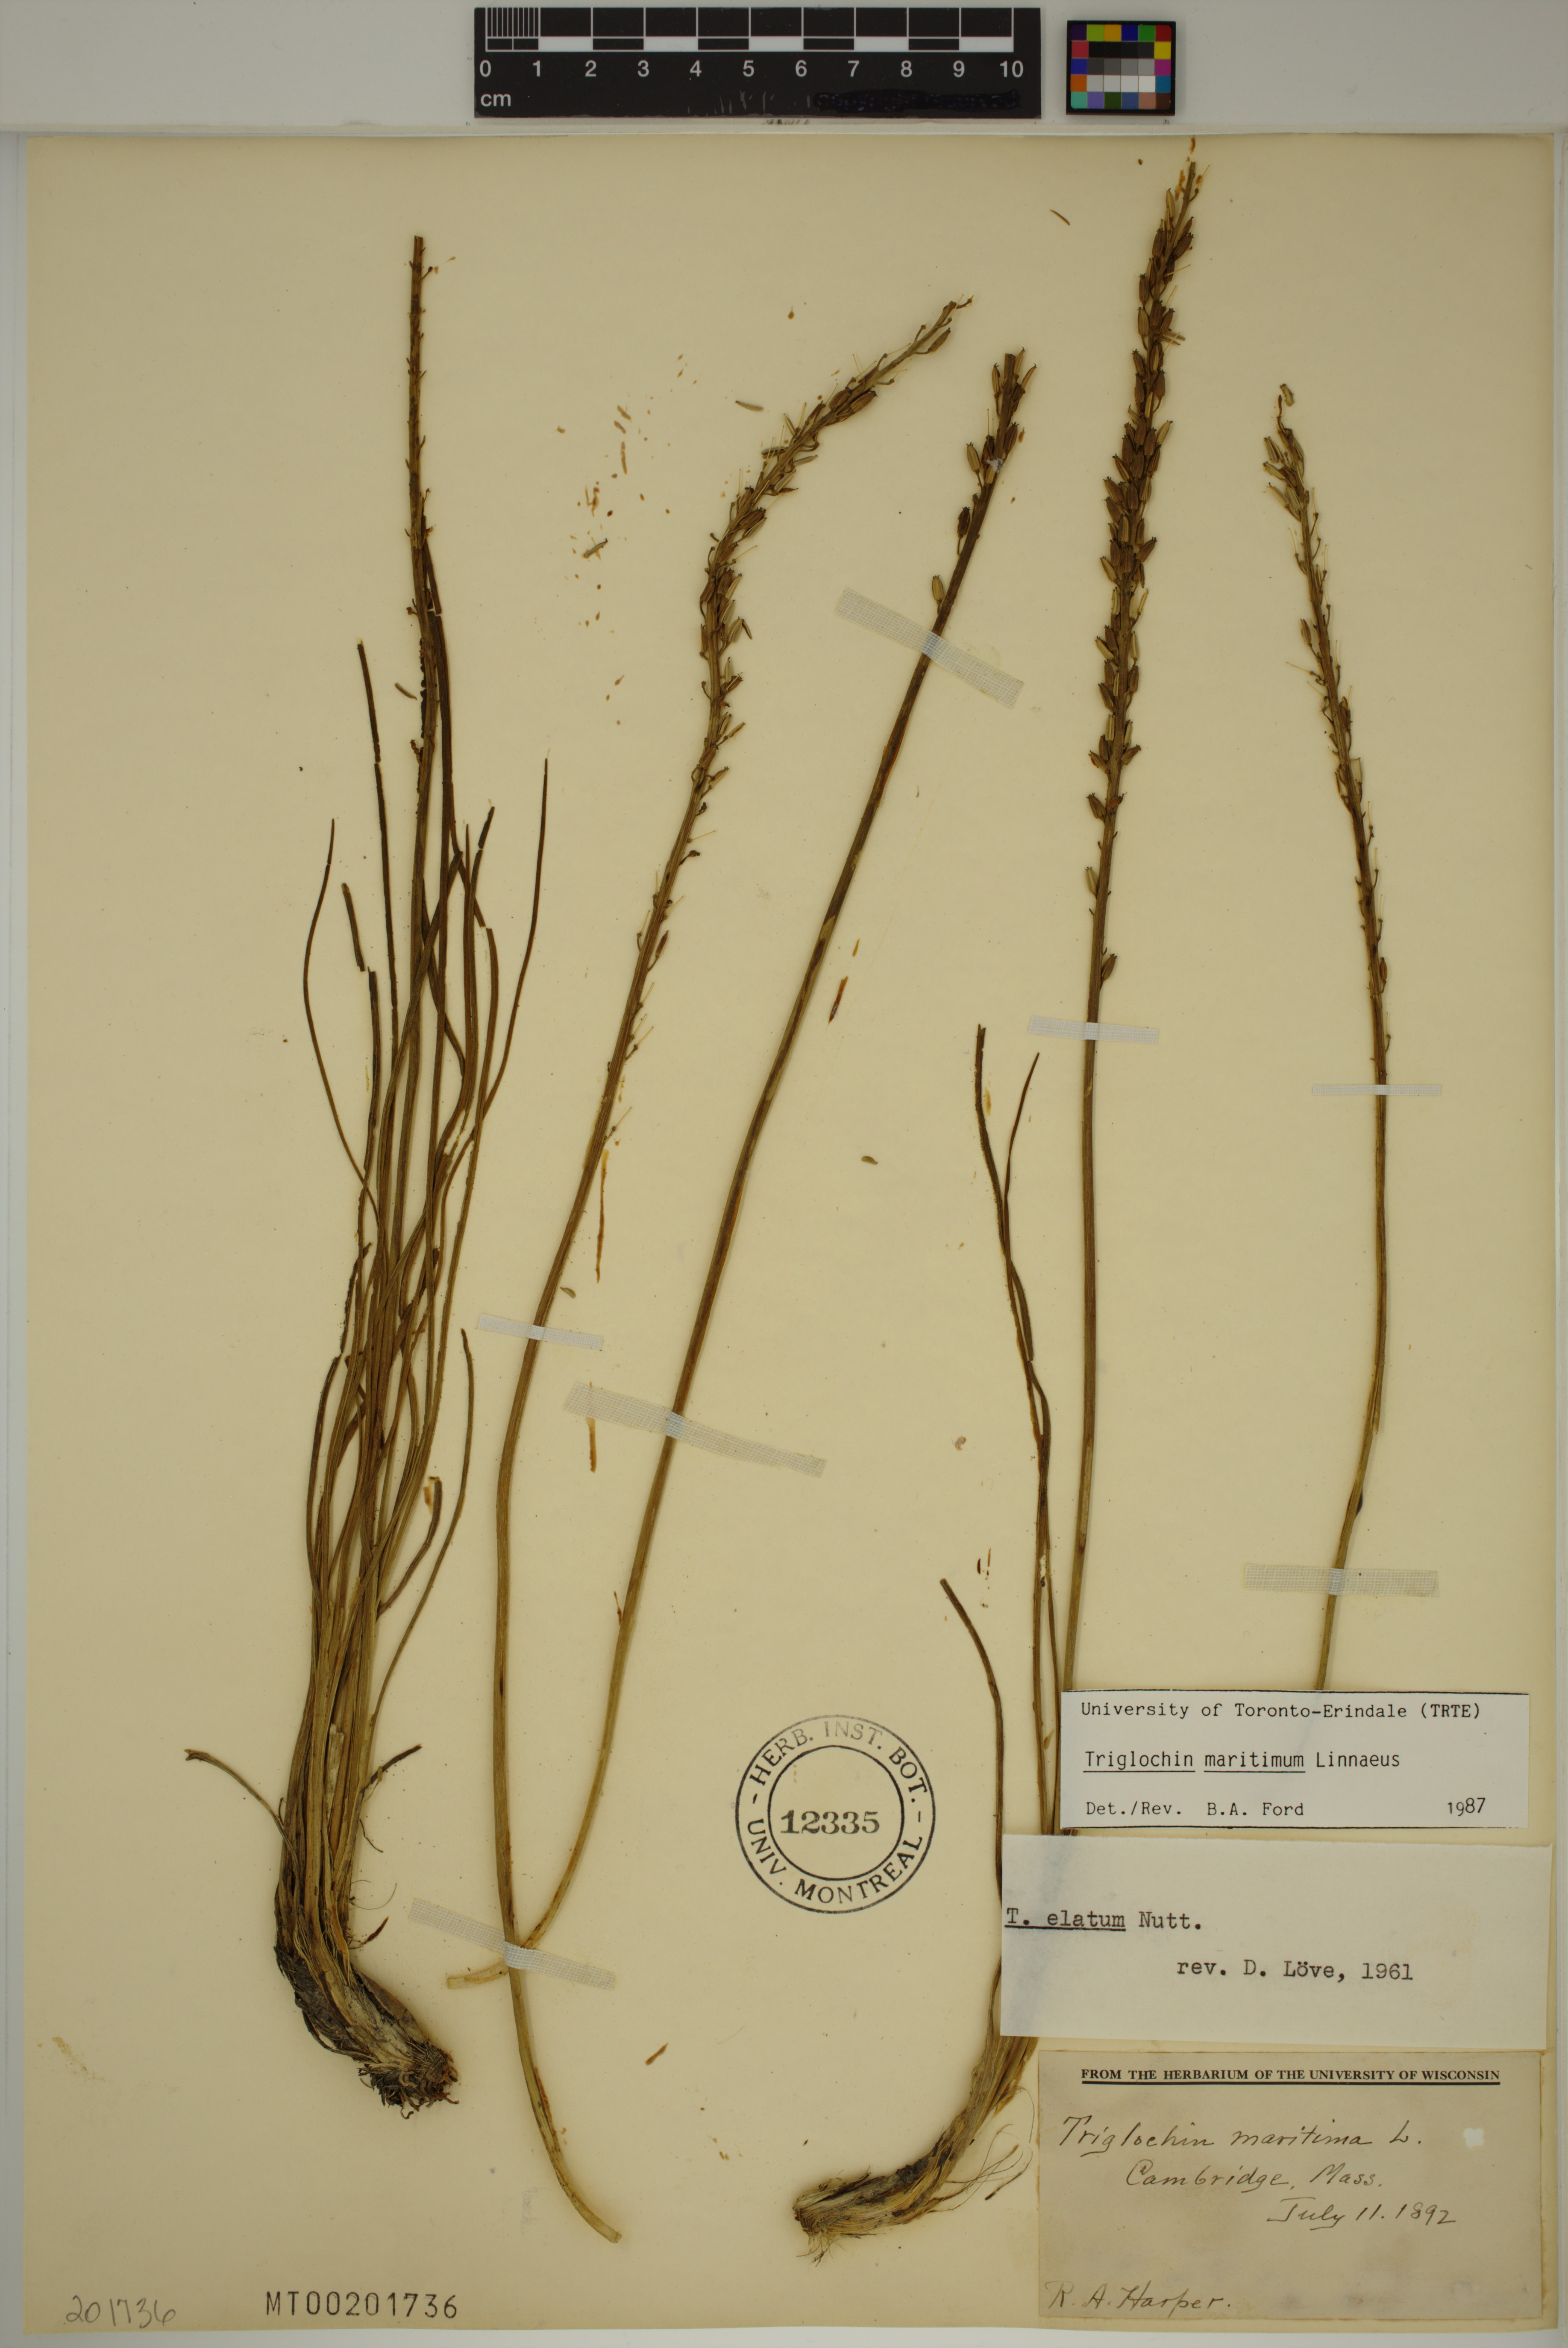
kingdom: Plantae
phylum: Tracheophyta
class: Liliopsida
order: Alismatales
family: Juncaginaceae
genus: Triglochin
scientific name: Triglochin maritima
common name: Sea arrowgrass
